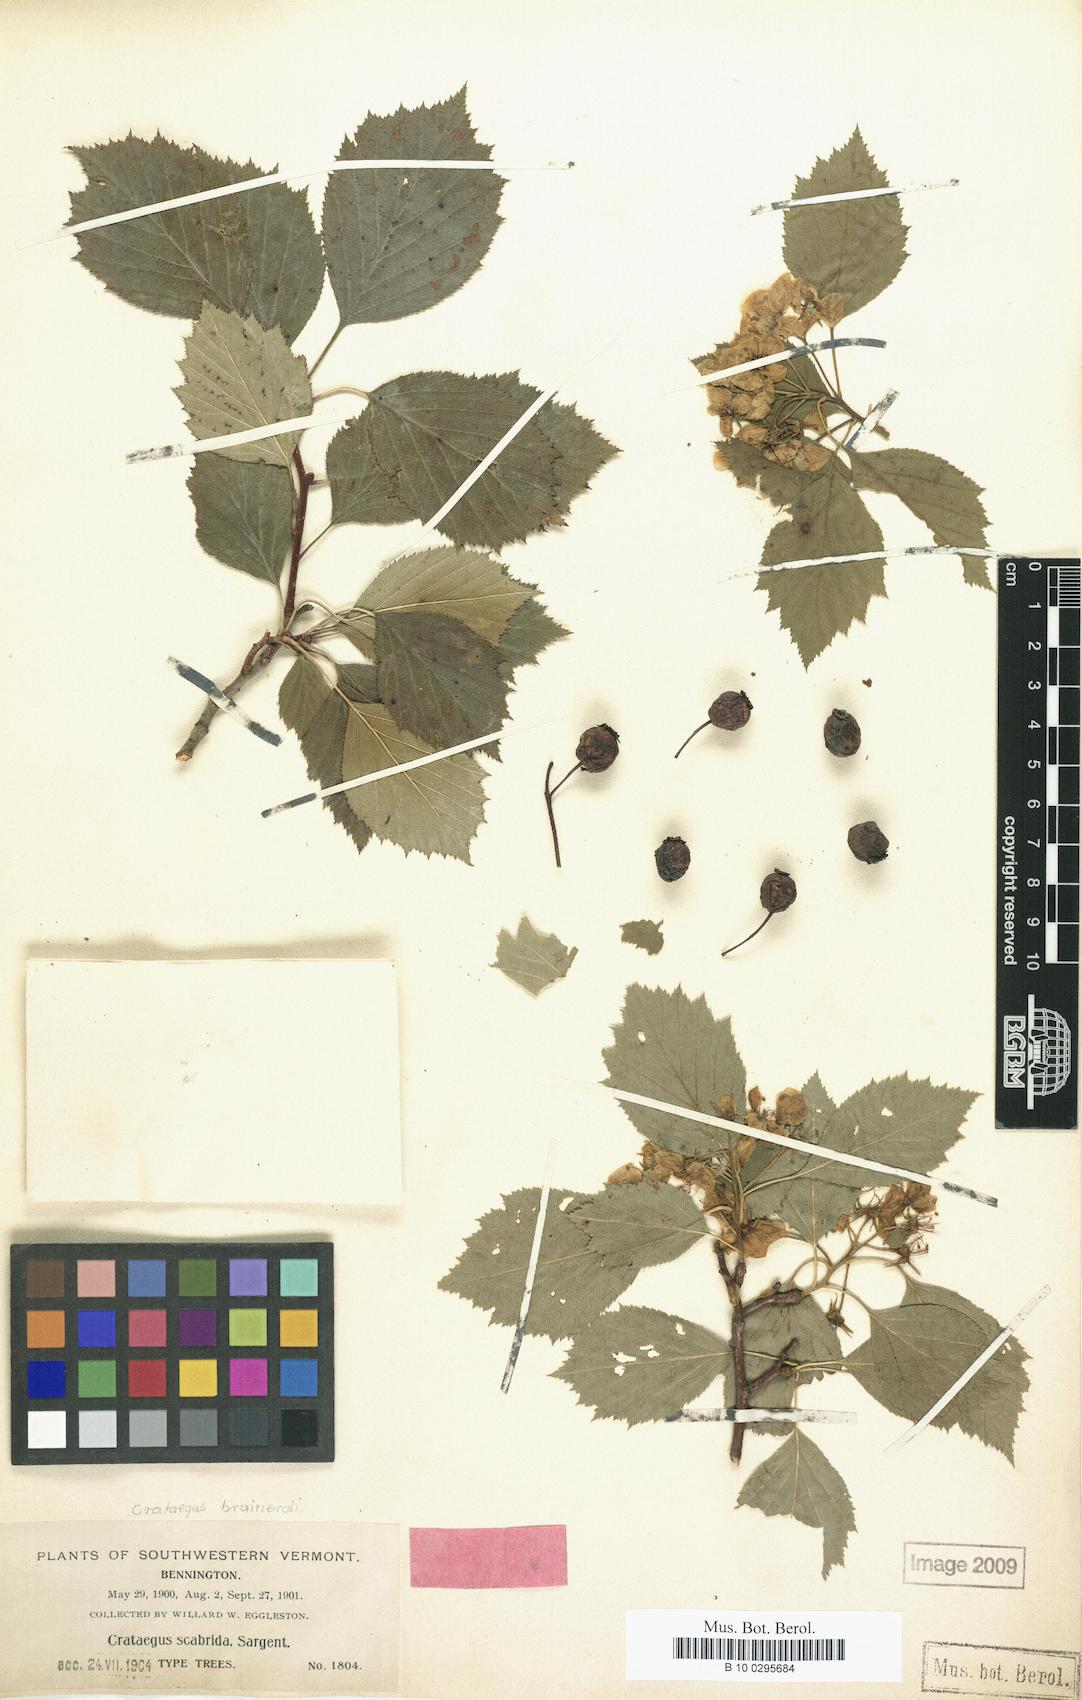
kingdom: Plantae
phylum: Tracheophyta
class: Magnoliopsida
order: Rosales
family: Rosaceae
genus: Crataegus
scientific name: Crataegus scabrida
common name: Rough hawthorn
